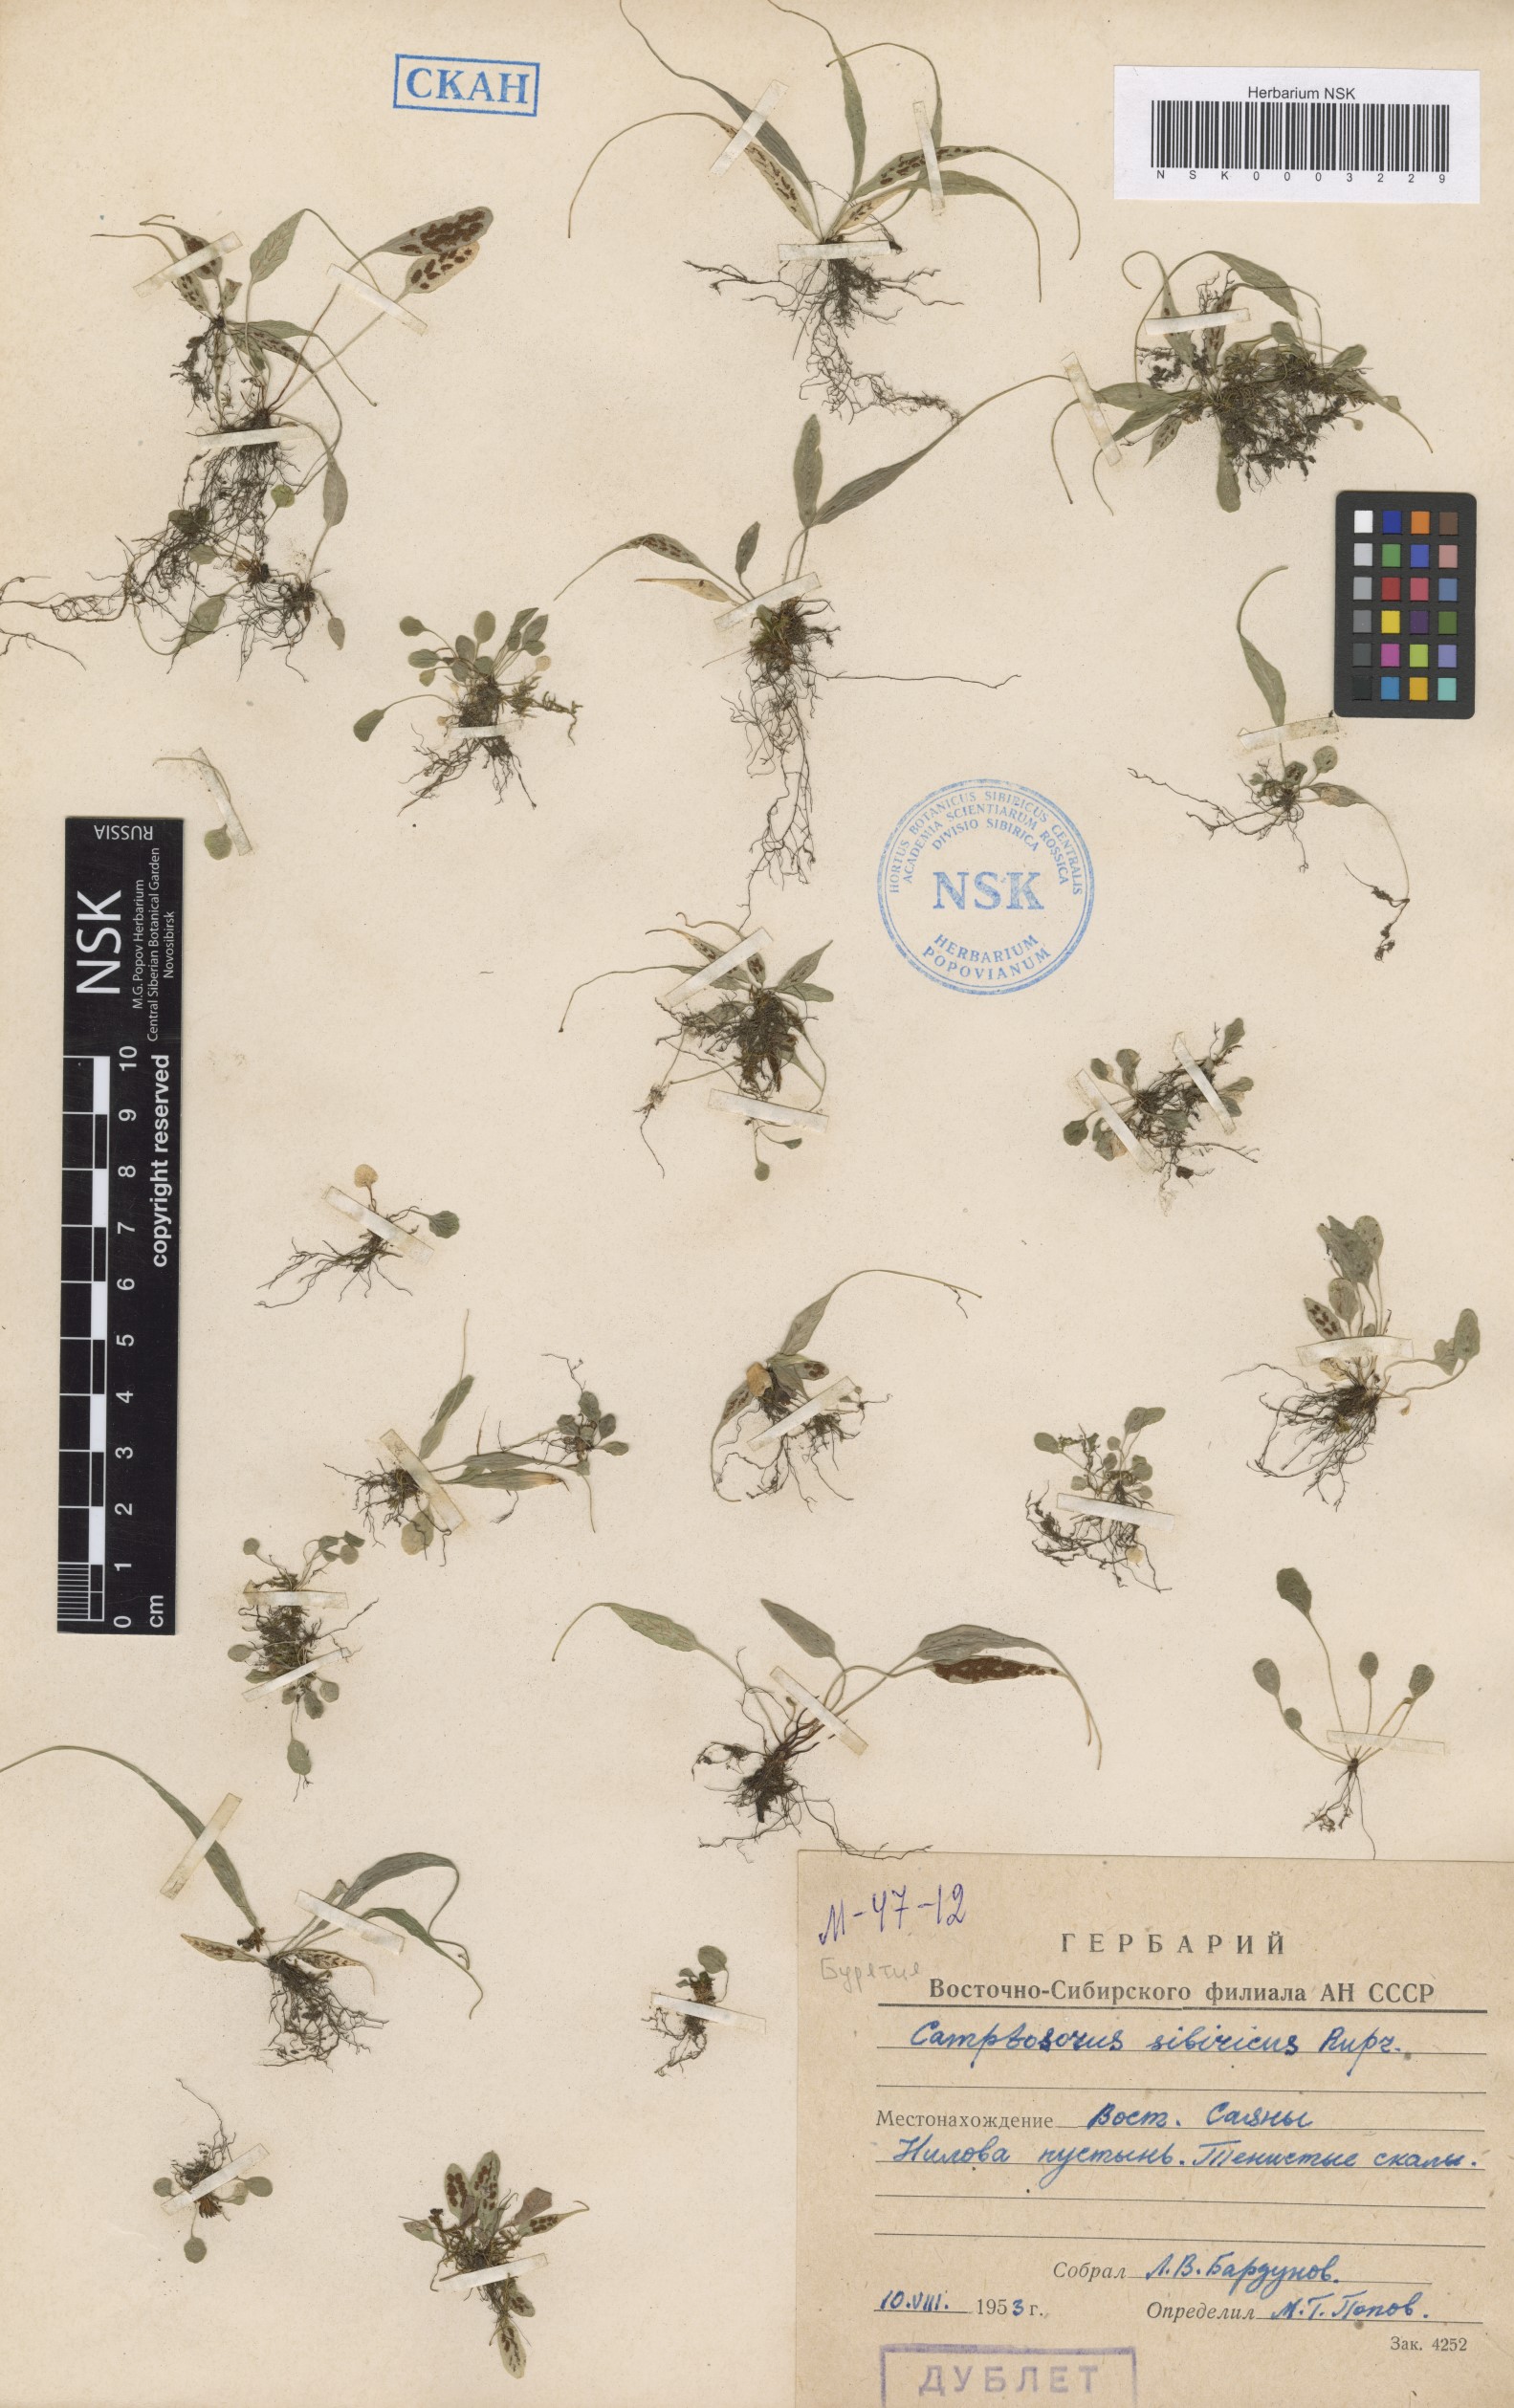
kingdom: Plantae
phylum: Tracheophyta
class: Polypodiopsida
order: Polypodiales
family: Aspleniaceae
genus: Asplenium
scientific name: Asplenium ruprechtii
